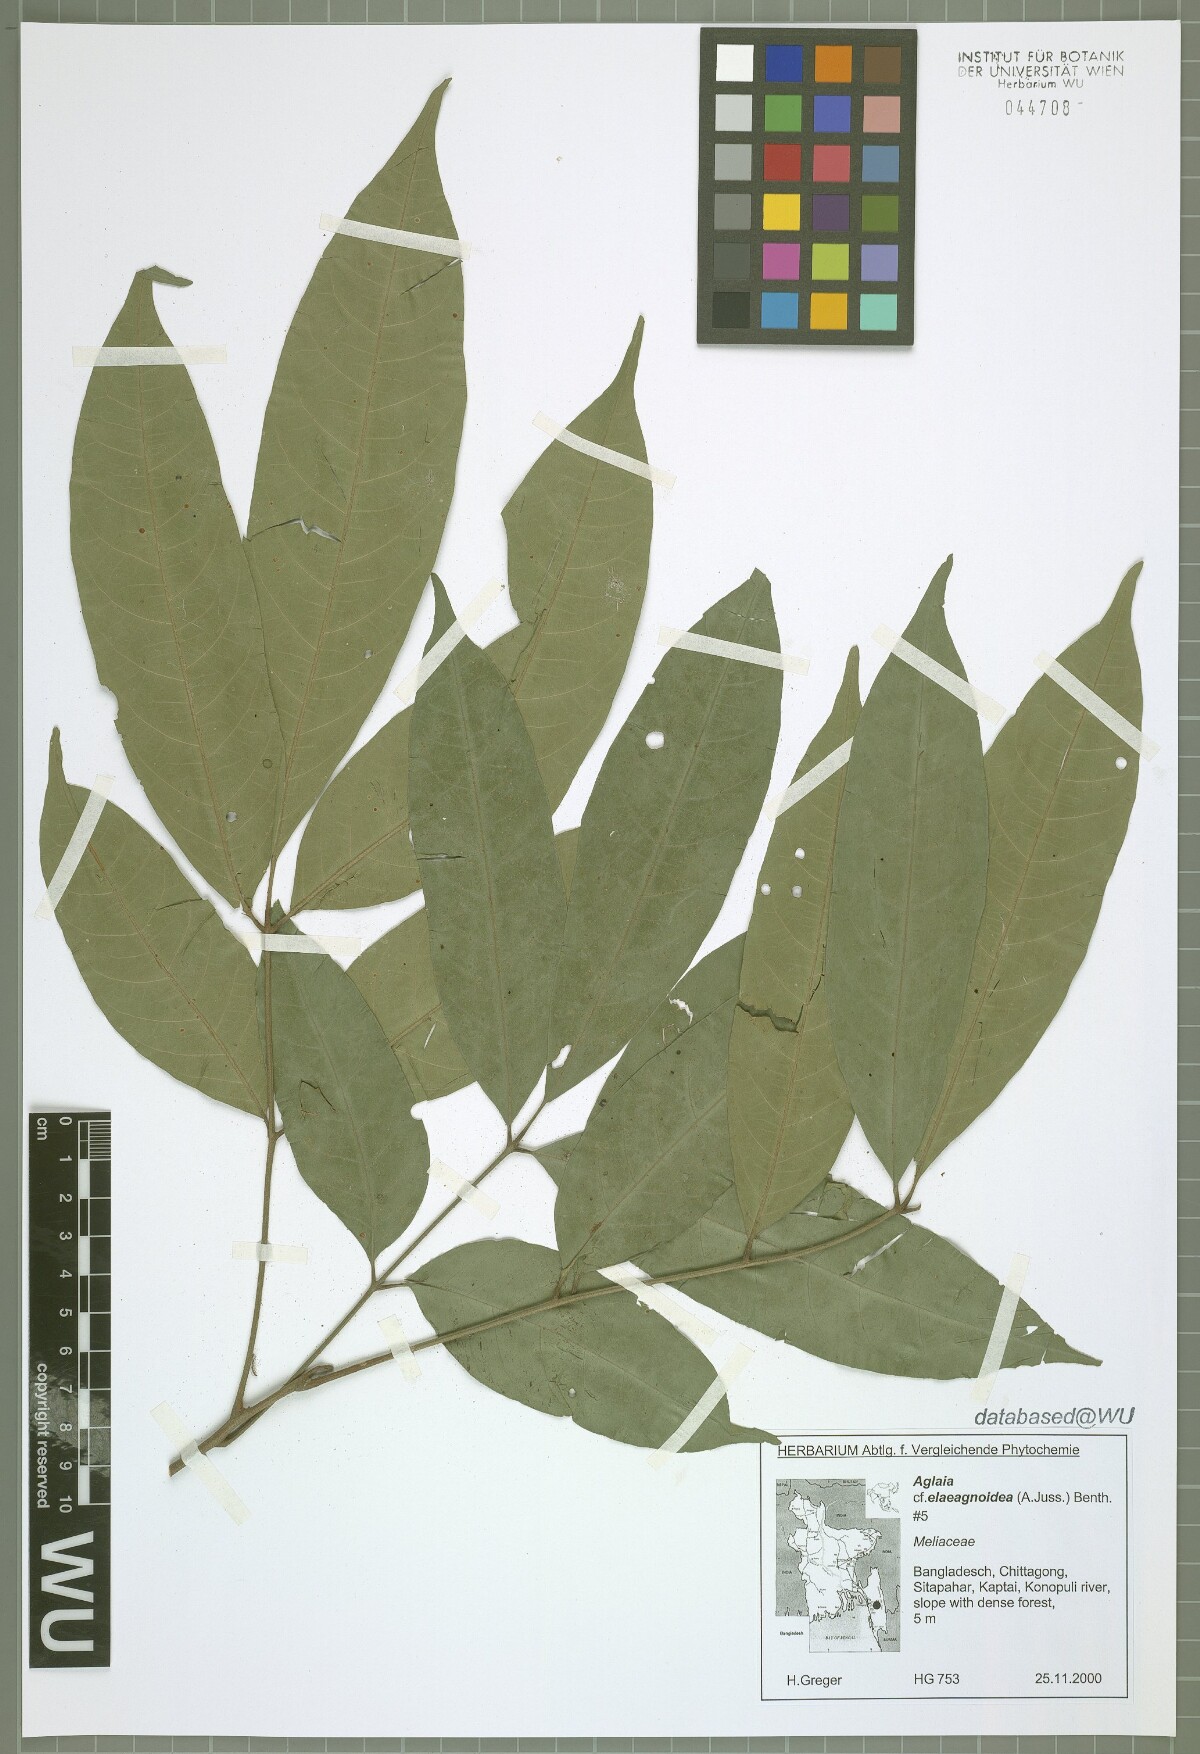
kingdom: Plantae
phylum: Tracheophyta
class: Magnoliopsida
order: Sapindales
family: Meliaceae
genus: Aglaia
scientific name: Aglaia elaeagnoidea
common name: Droopyleaf
